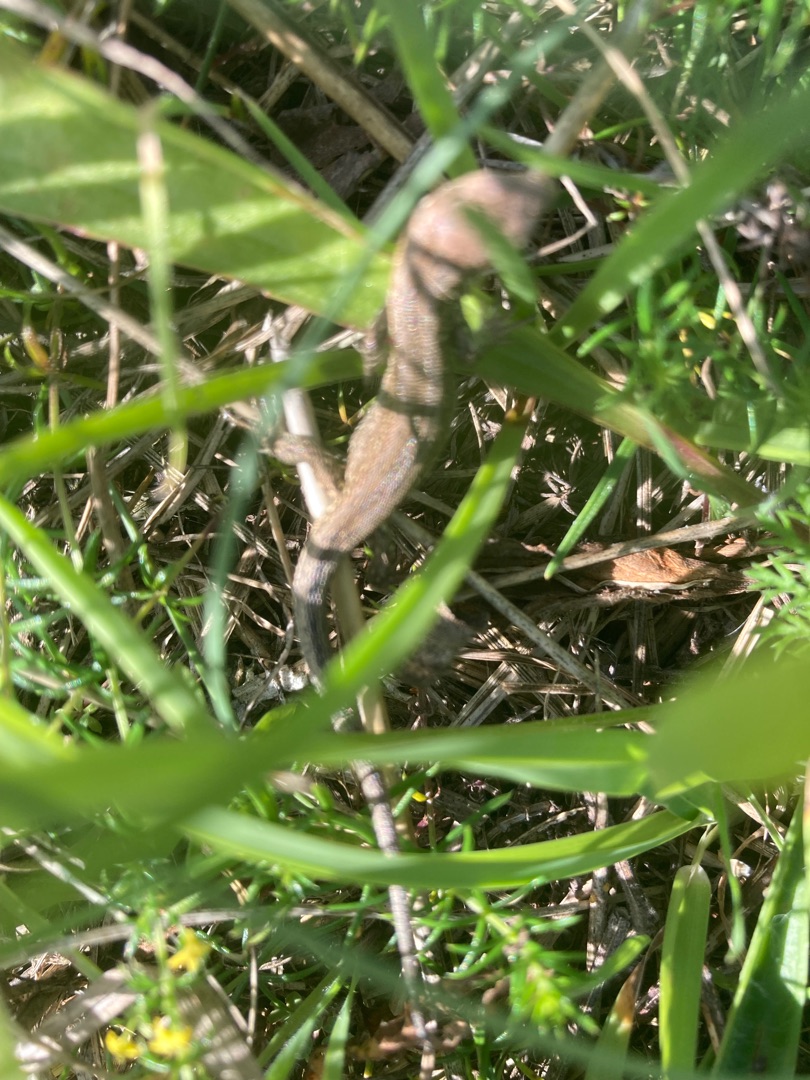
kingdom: Animalia
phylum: Chordata
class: Squamata
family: Lacertidae
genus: Lacerta
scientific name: Lacerta agilis
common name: Markfirben
